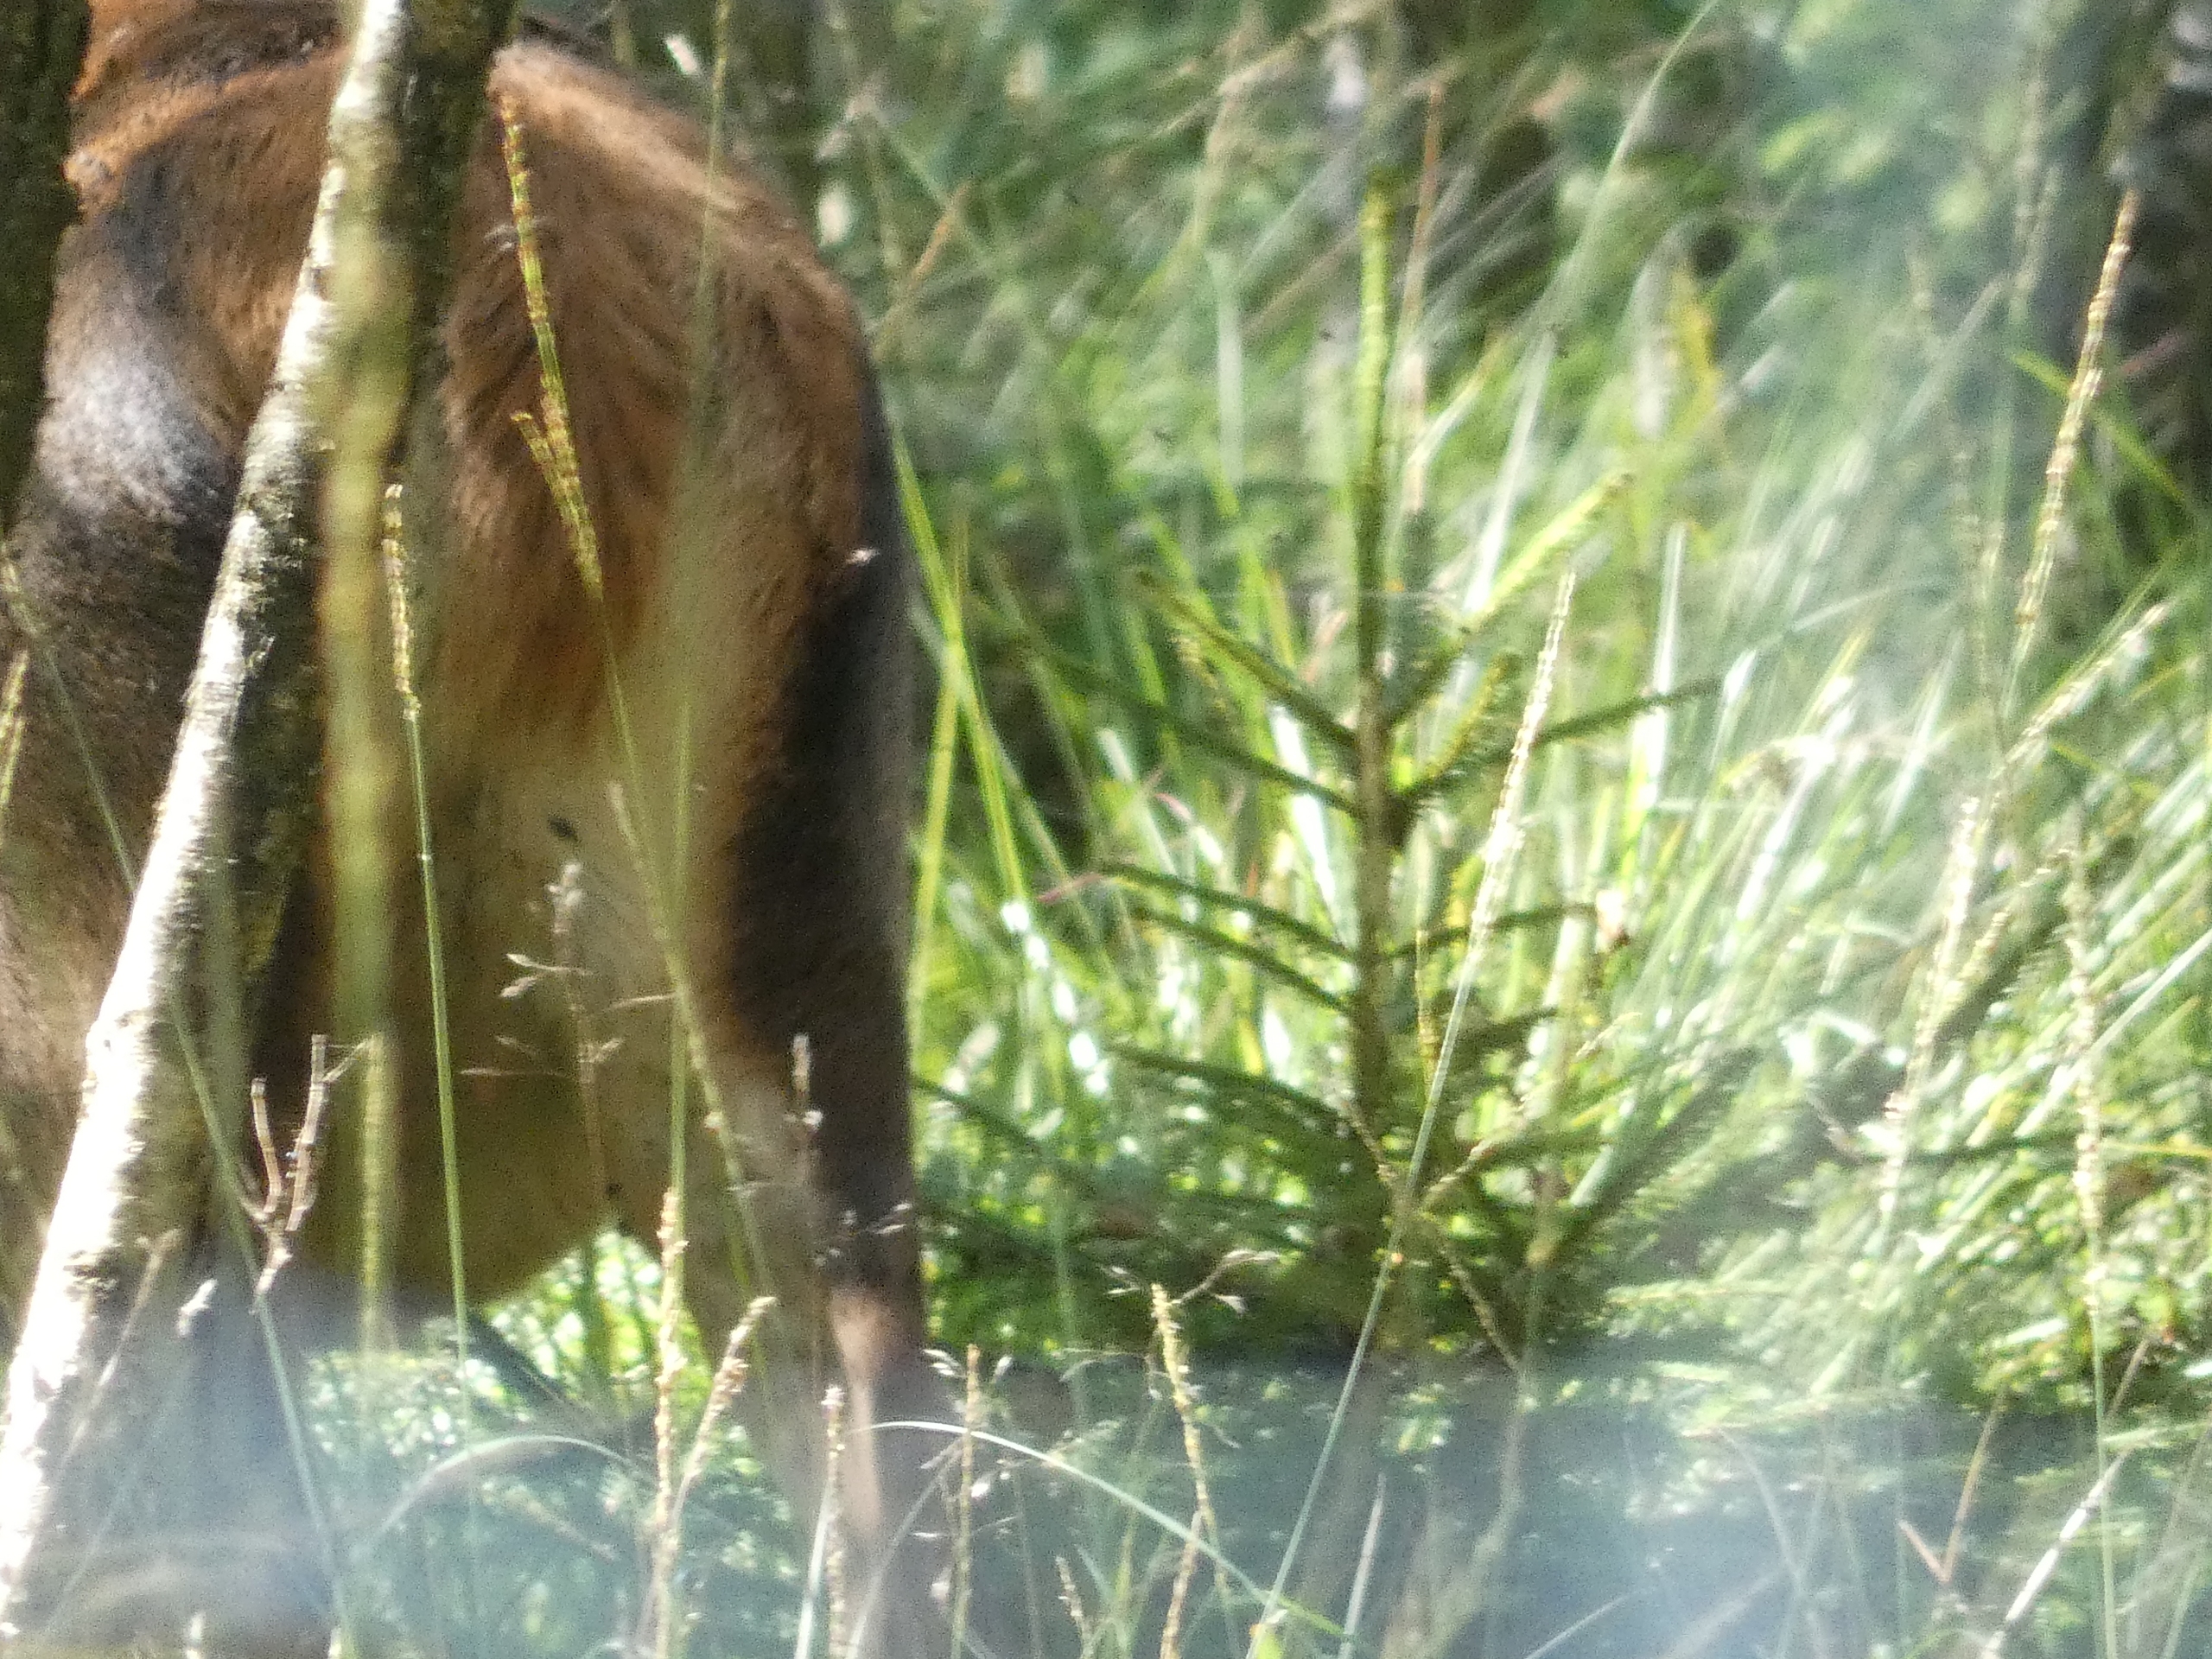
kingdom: Animalia
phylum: Chordata
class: Mammalia
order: Artiodactyla
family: Cervidae
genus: Cervus
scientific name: Cervus elaphus
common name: Krondyr
